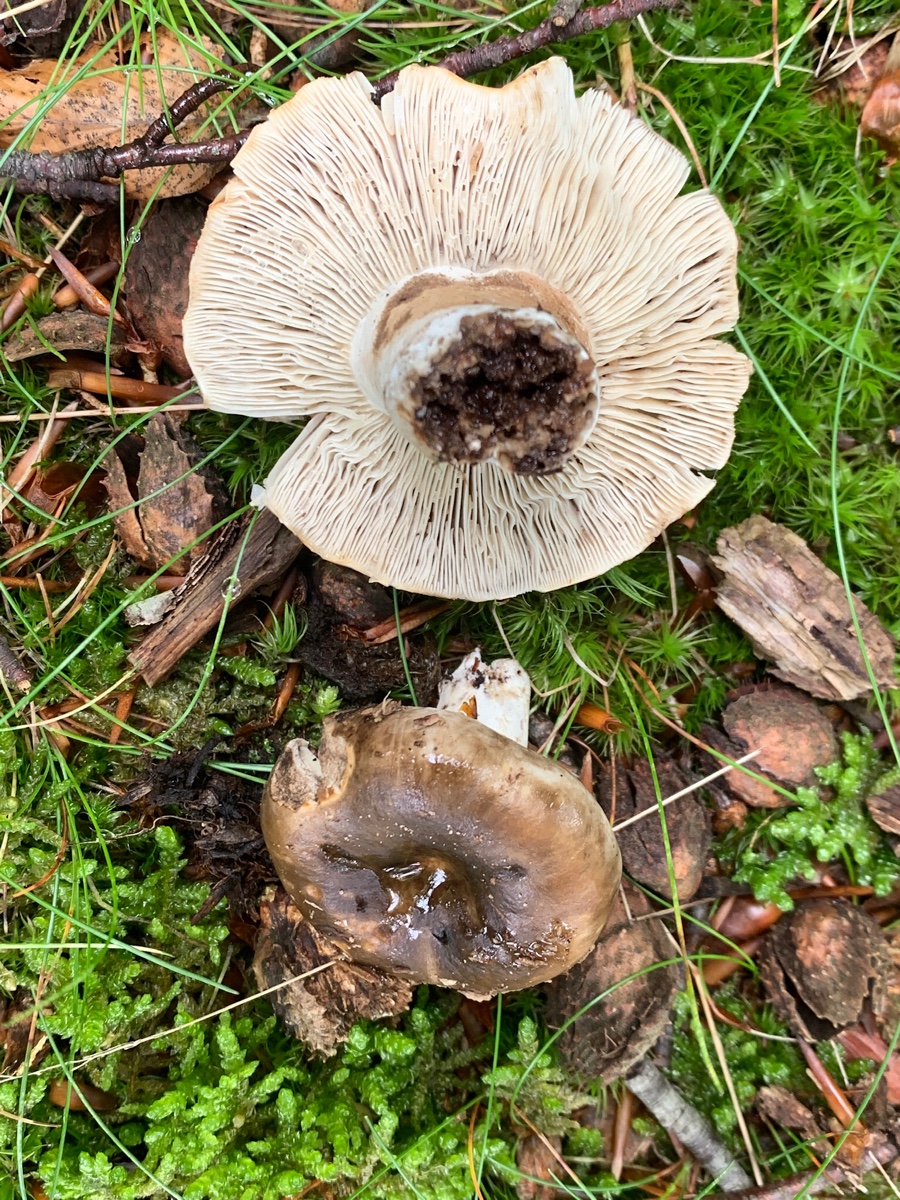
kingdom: Fungi
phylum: Basidiomycota
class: Agaricomycetes
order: Russulales
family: Russulaceae
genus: Russula
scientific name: Russula adusta
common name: sværtende skørhat
